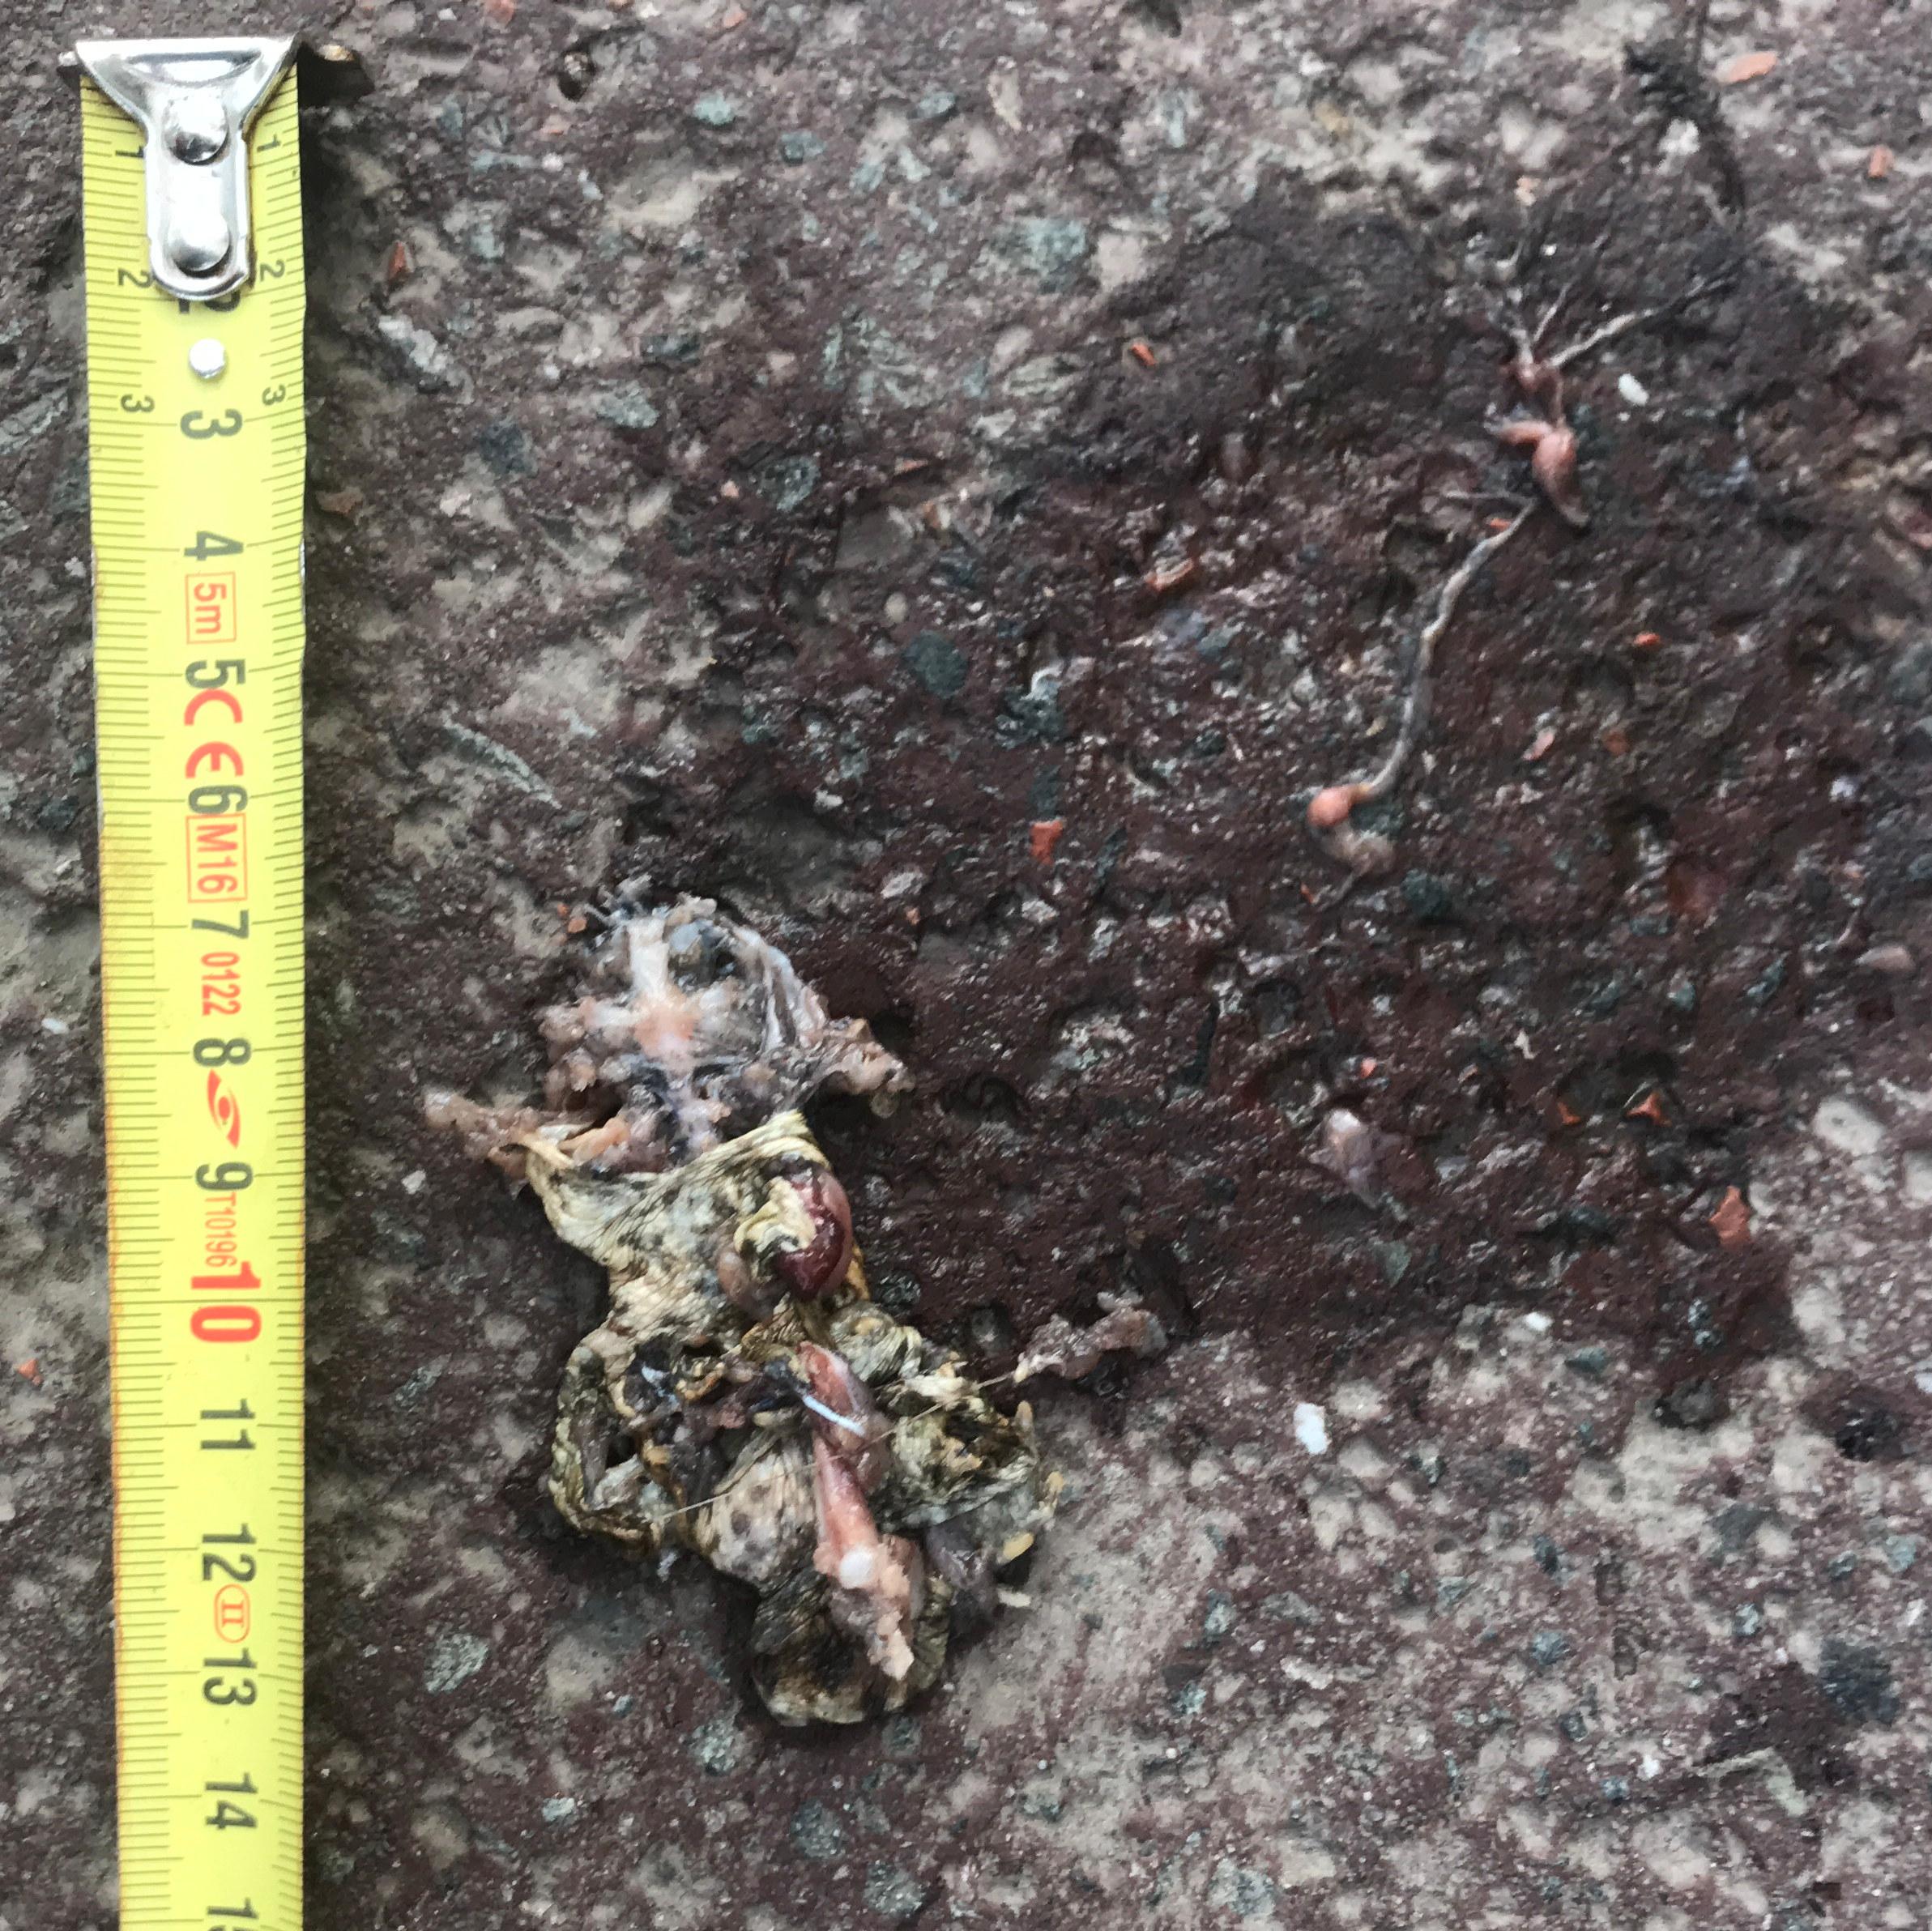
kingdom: Animalia
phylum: Chordata
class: Amphibia
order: Anura
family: Bufonidae
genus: Bufo
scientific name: Bufo bufo
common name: Common toad
